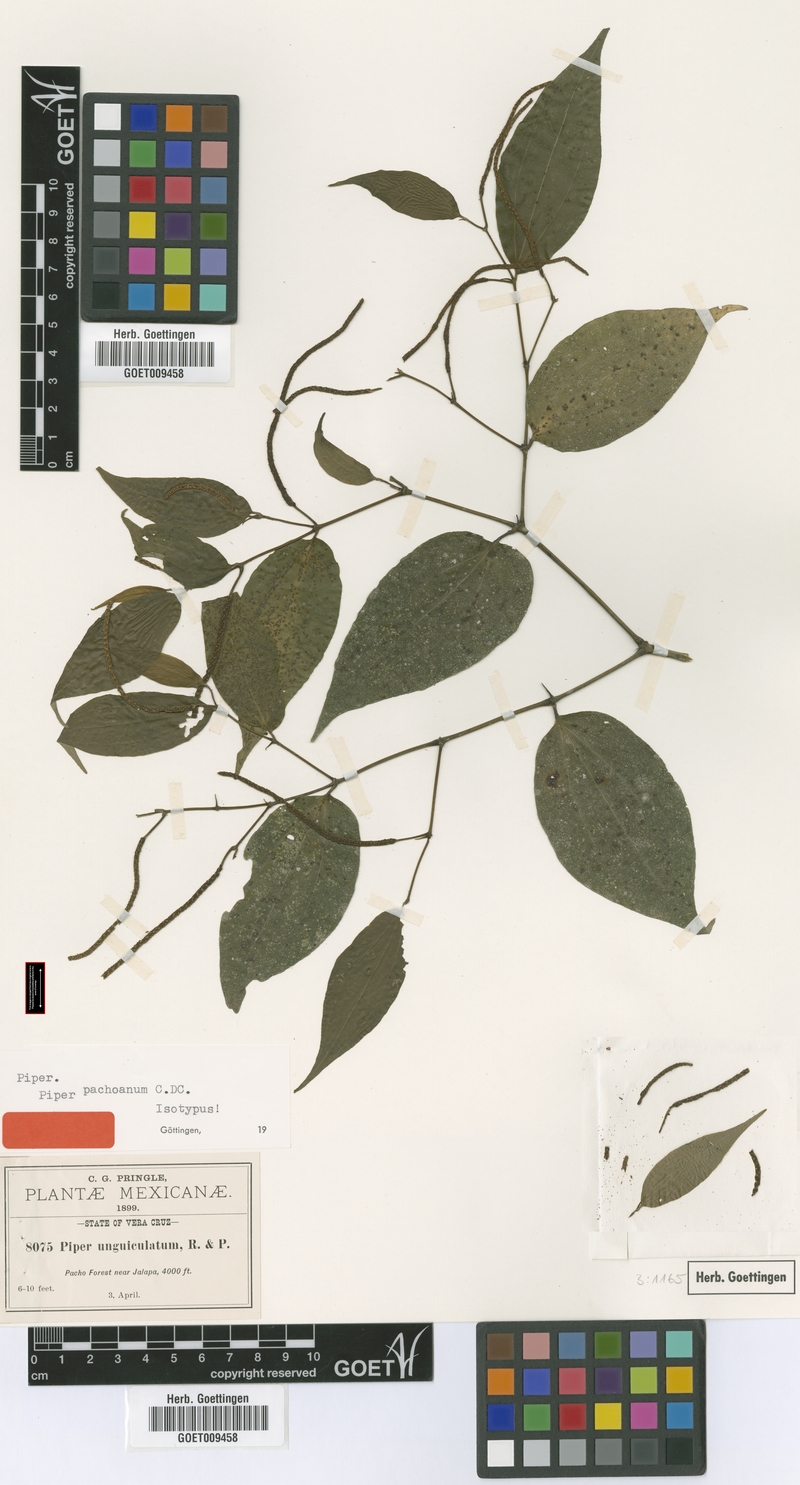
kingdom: Plantae
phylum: Tracheophyta
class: Magnoliopsida
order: Piperales
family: Piperaceae
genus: Piper
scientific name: Piper pachoanum
